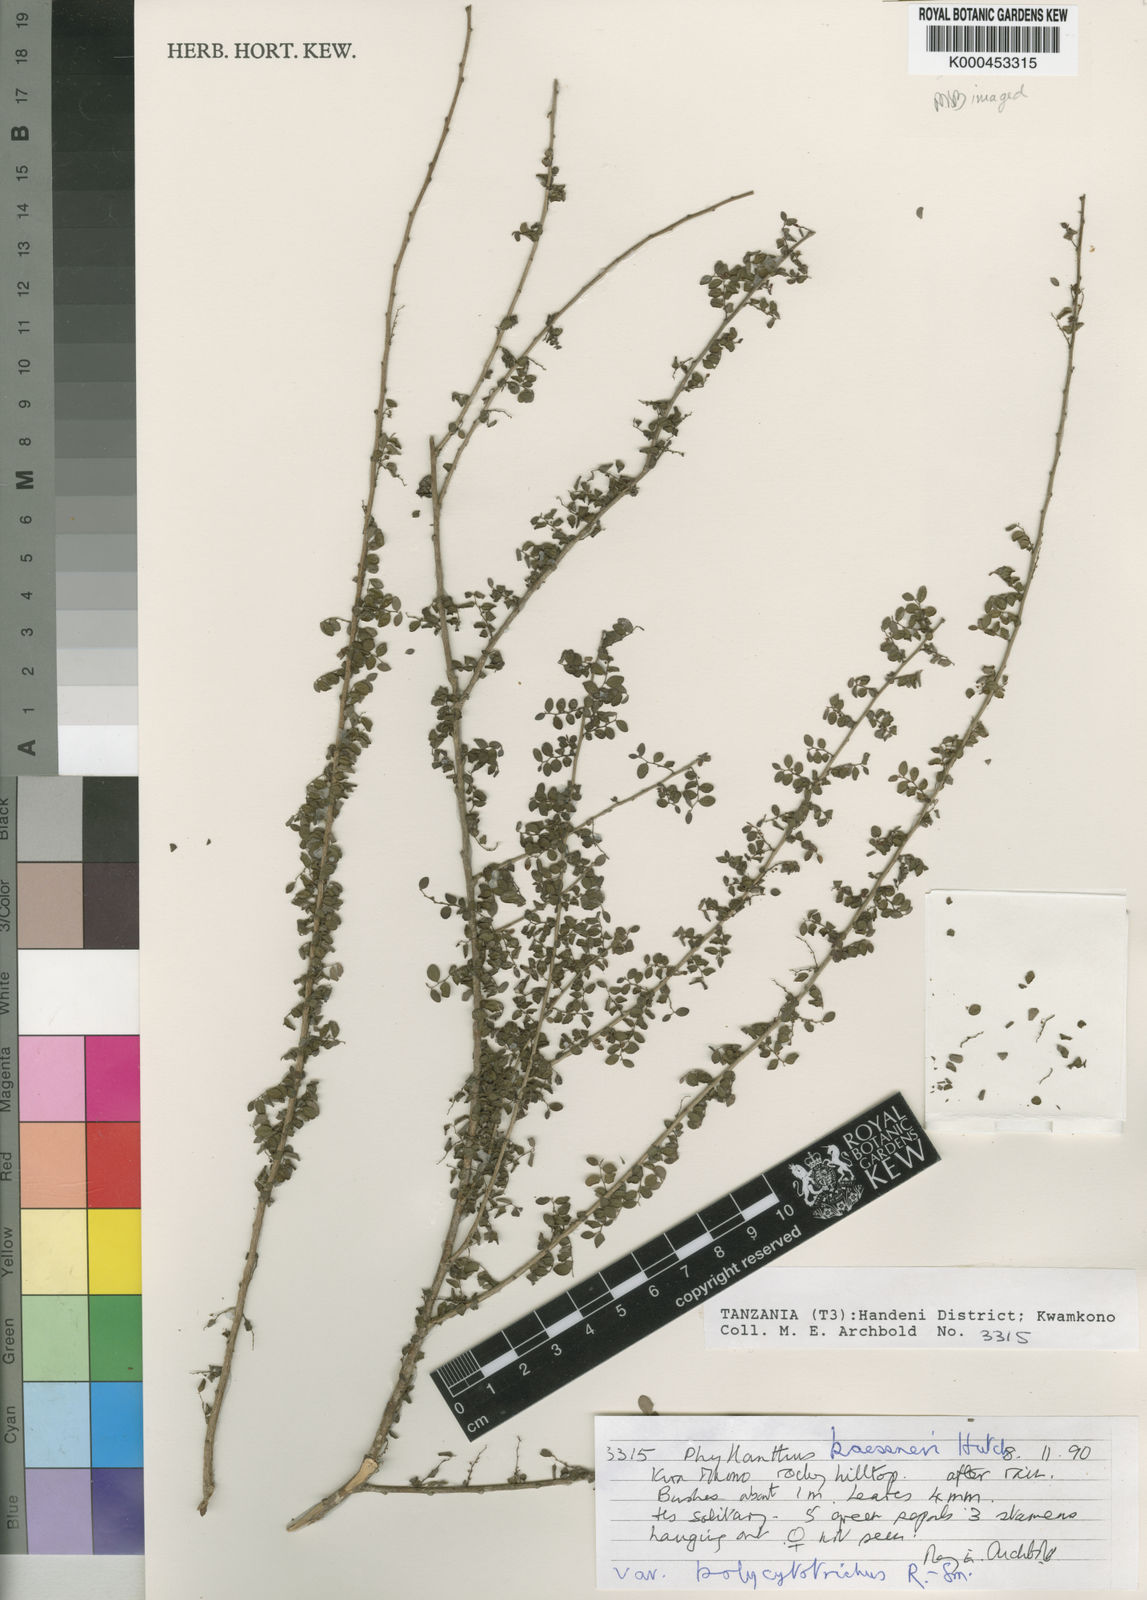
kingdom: Plantae
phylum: Tracheophyta
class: Magnoliopsida
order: Malpighiales
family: Phyllanthaceae
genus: Phyllanthus
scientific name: Phyllanthus kaessneri
